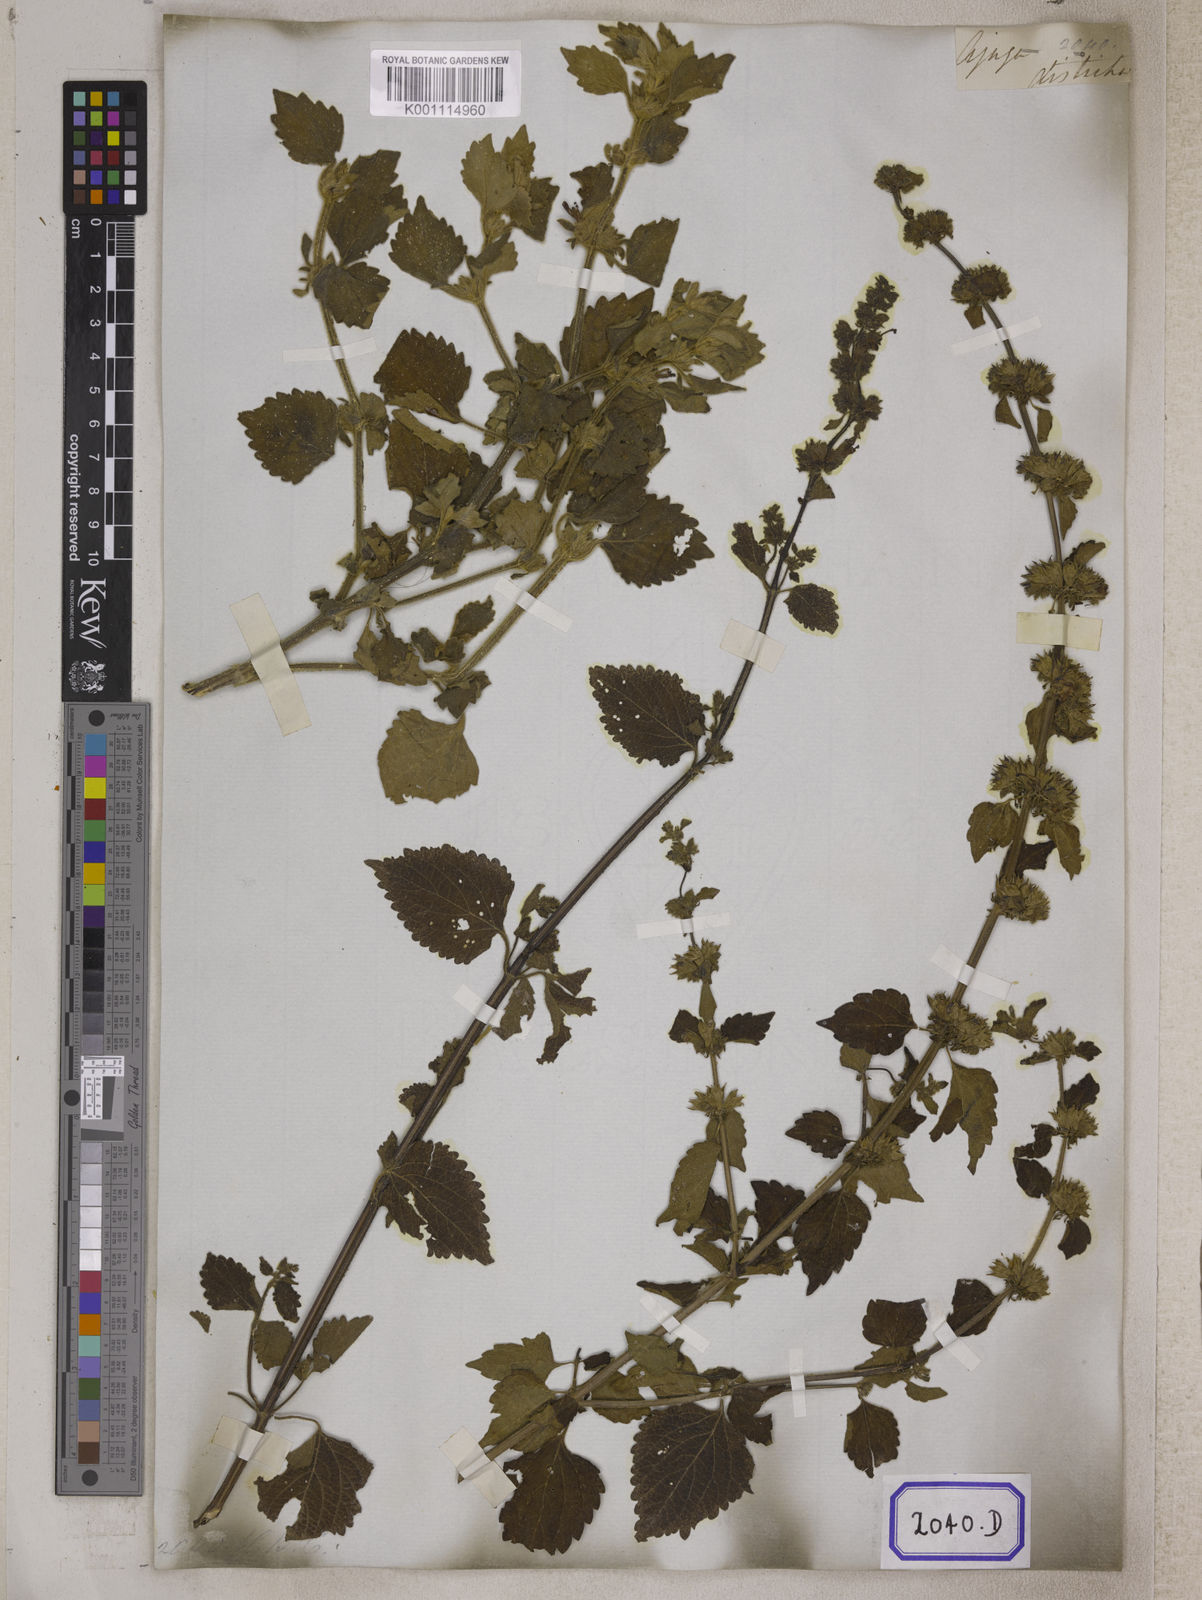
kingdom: Plantae
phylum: Tracheophyta
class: Magnoliopsida
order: Lamiales
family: Lamiaceae
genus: Anisomeles
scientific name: Anisomeles
